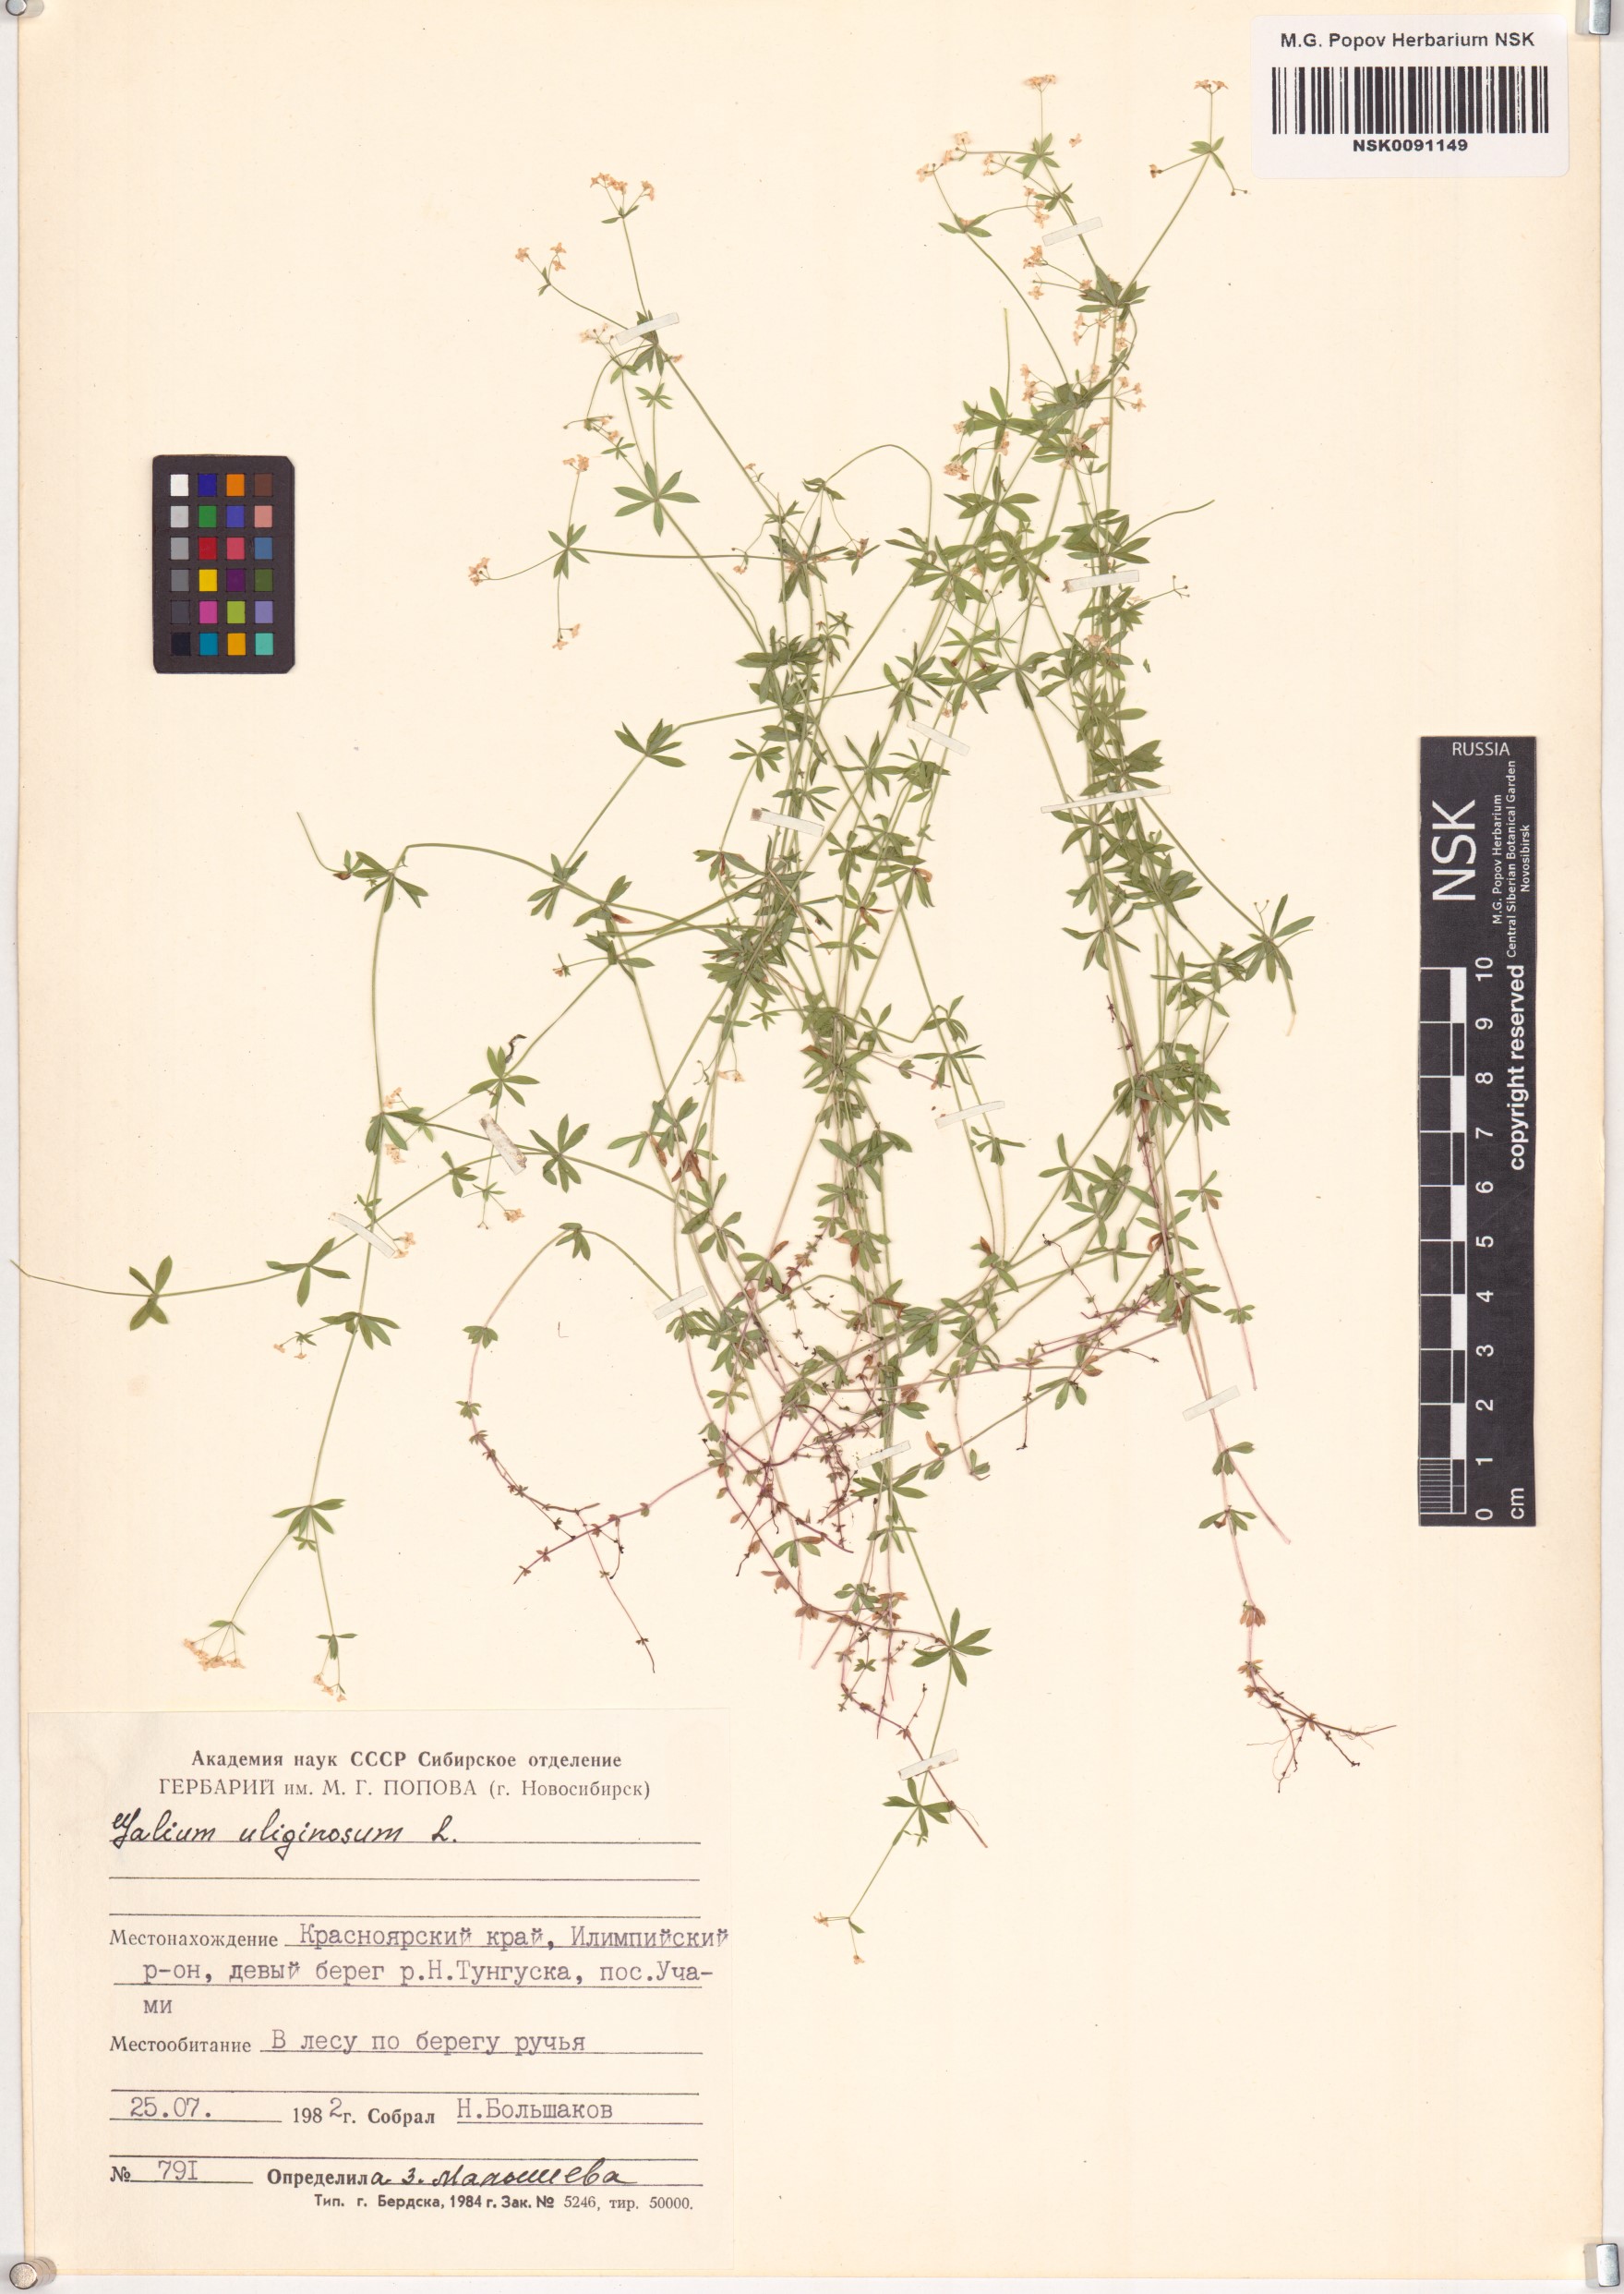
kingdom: Plantae
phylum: Tracheophyta
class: Magnoliopsida
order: Gentianales
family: Rubiaceae
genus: Galium
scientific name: Galium uliginosum
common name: Fen bedstraw
